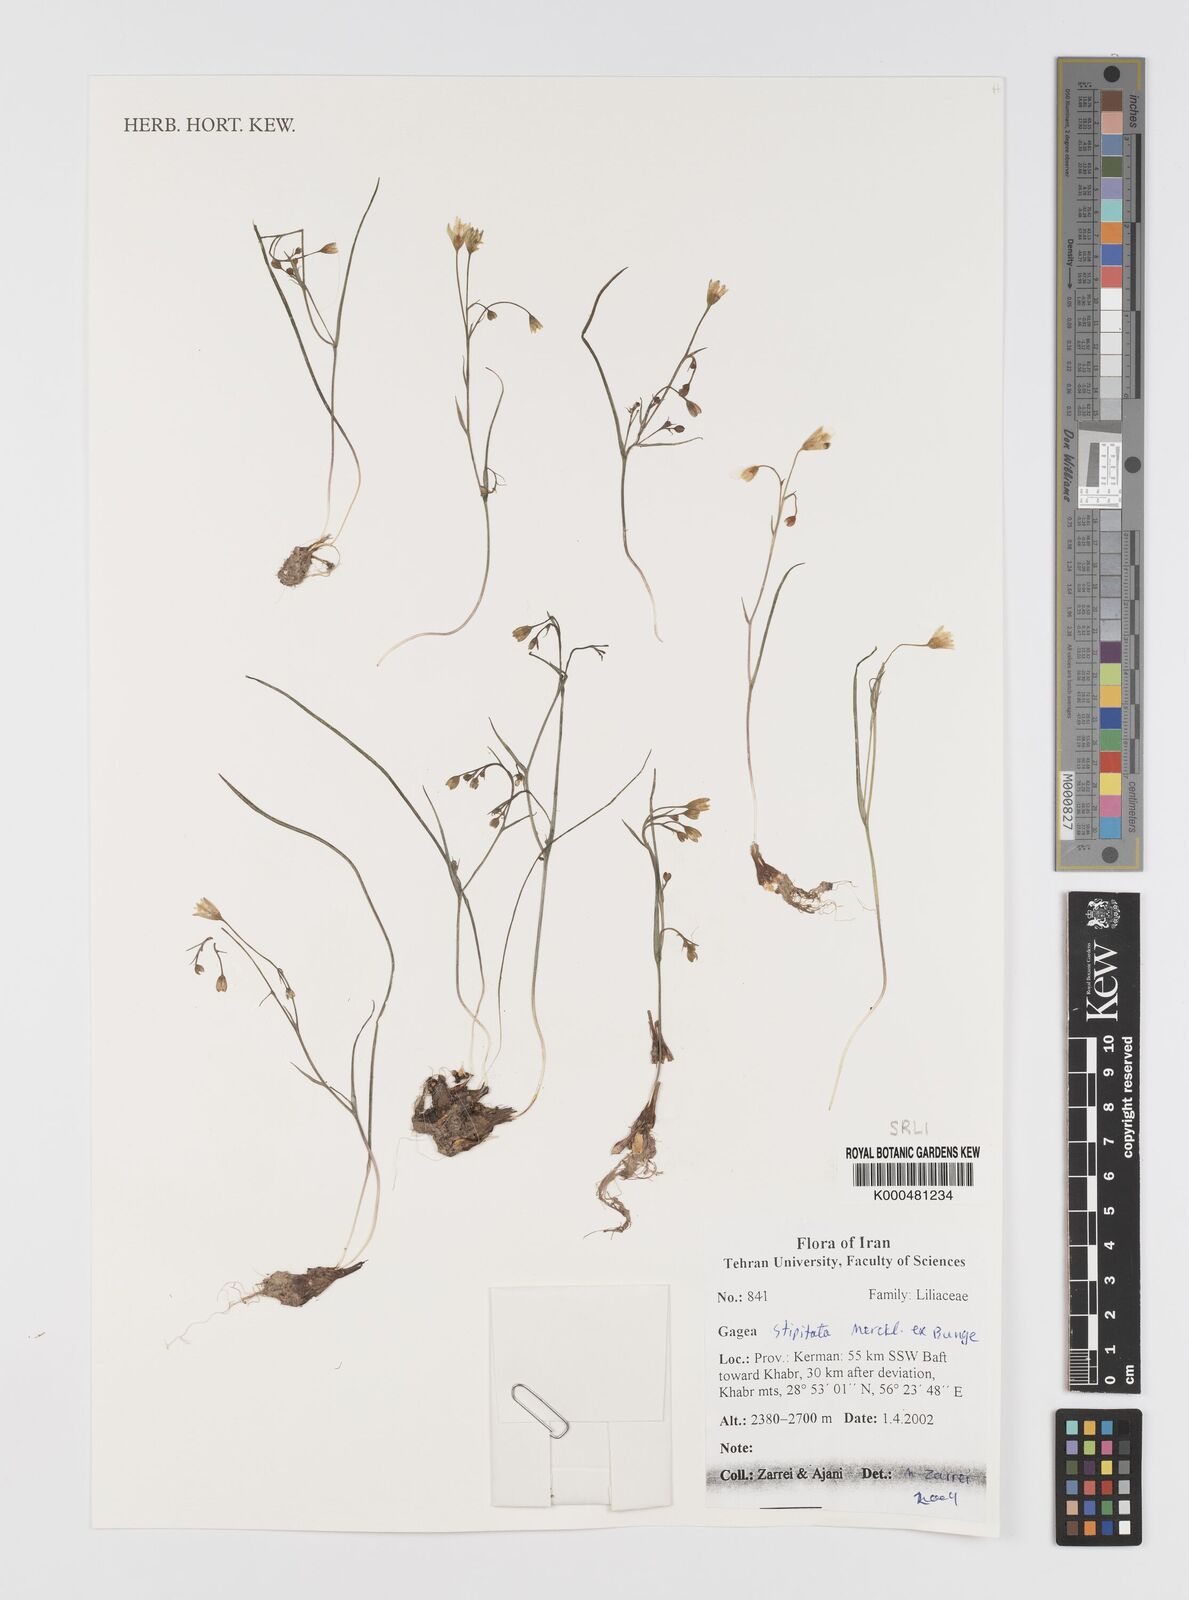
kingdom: Plantae
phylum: Tracheophyta
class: Liliopsida
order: Liliales
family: Liliaceae
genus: Gagea
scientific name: Gagea kunawurensis
